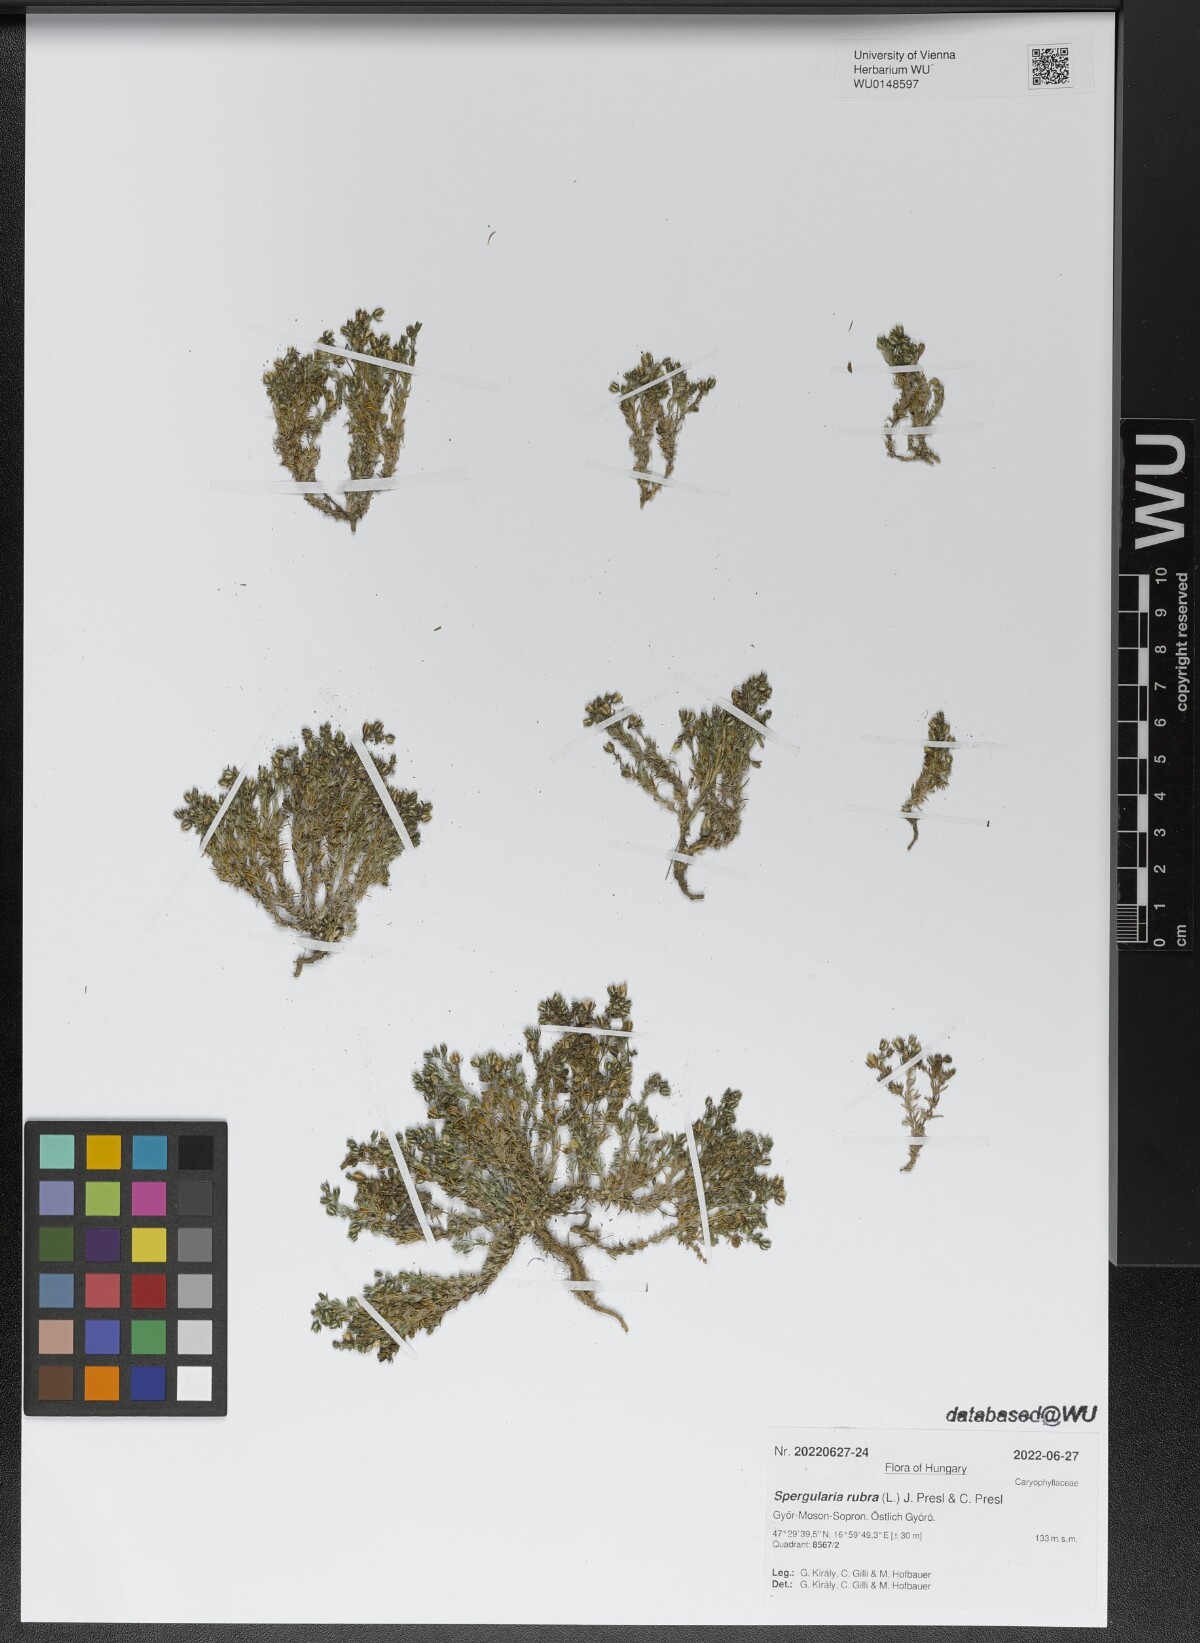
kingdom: Plantae
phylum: Tracheophyta
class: Magnoliopsida
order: Caryophyllales
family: Caryophyllaceae
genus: Spergularia
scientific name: Spergularia rubra
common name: Red sand-spurrey
